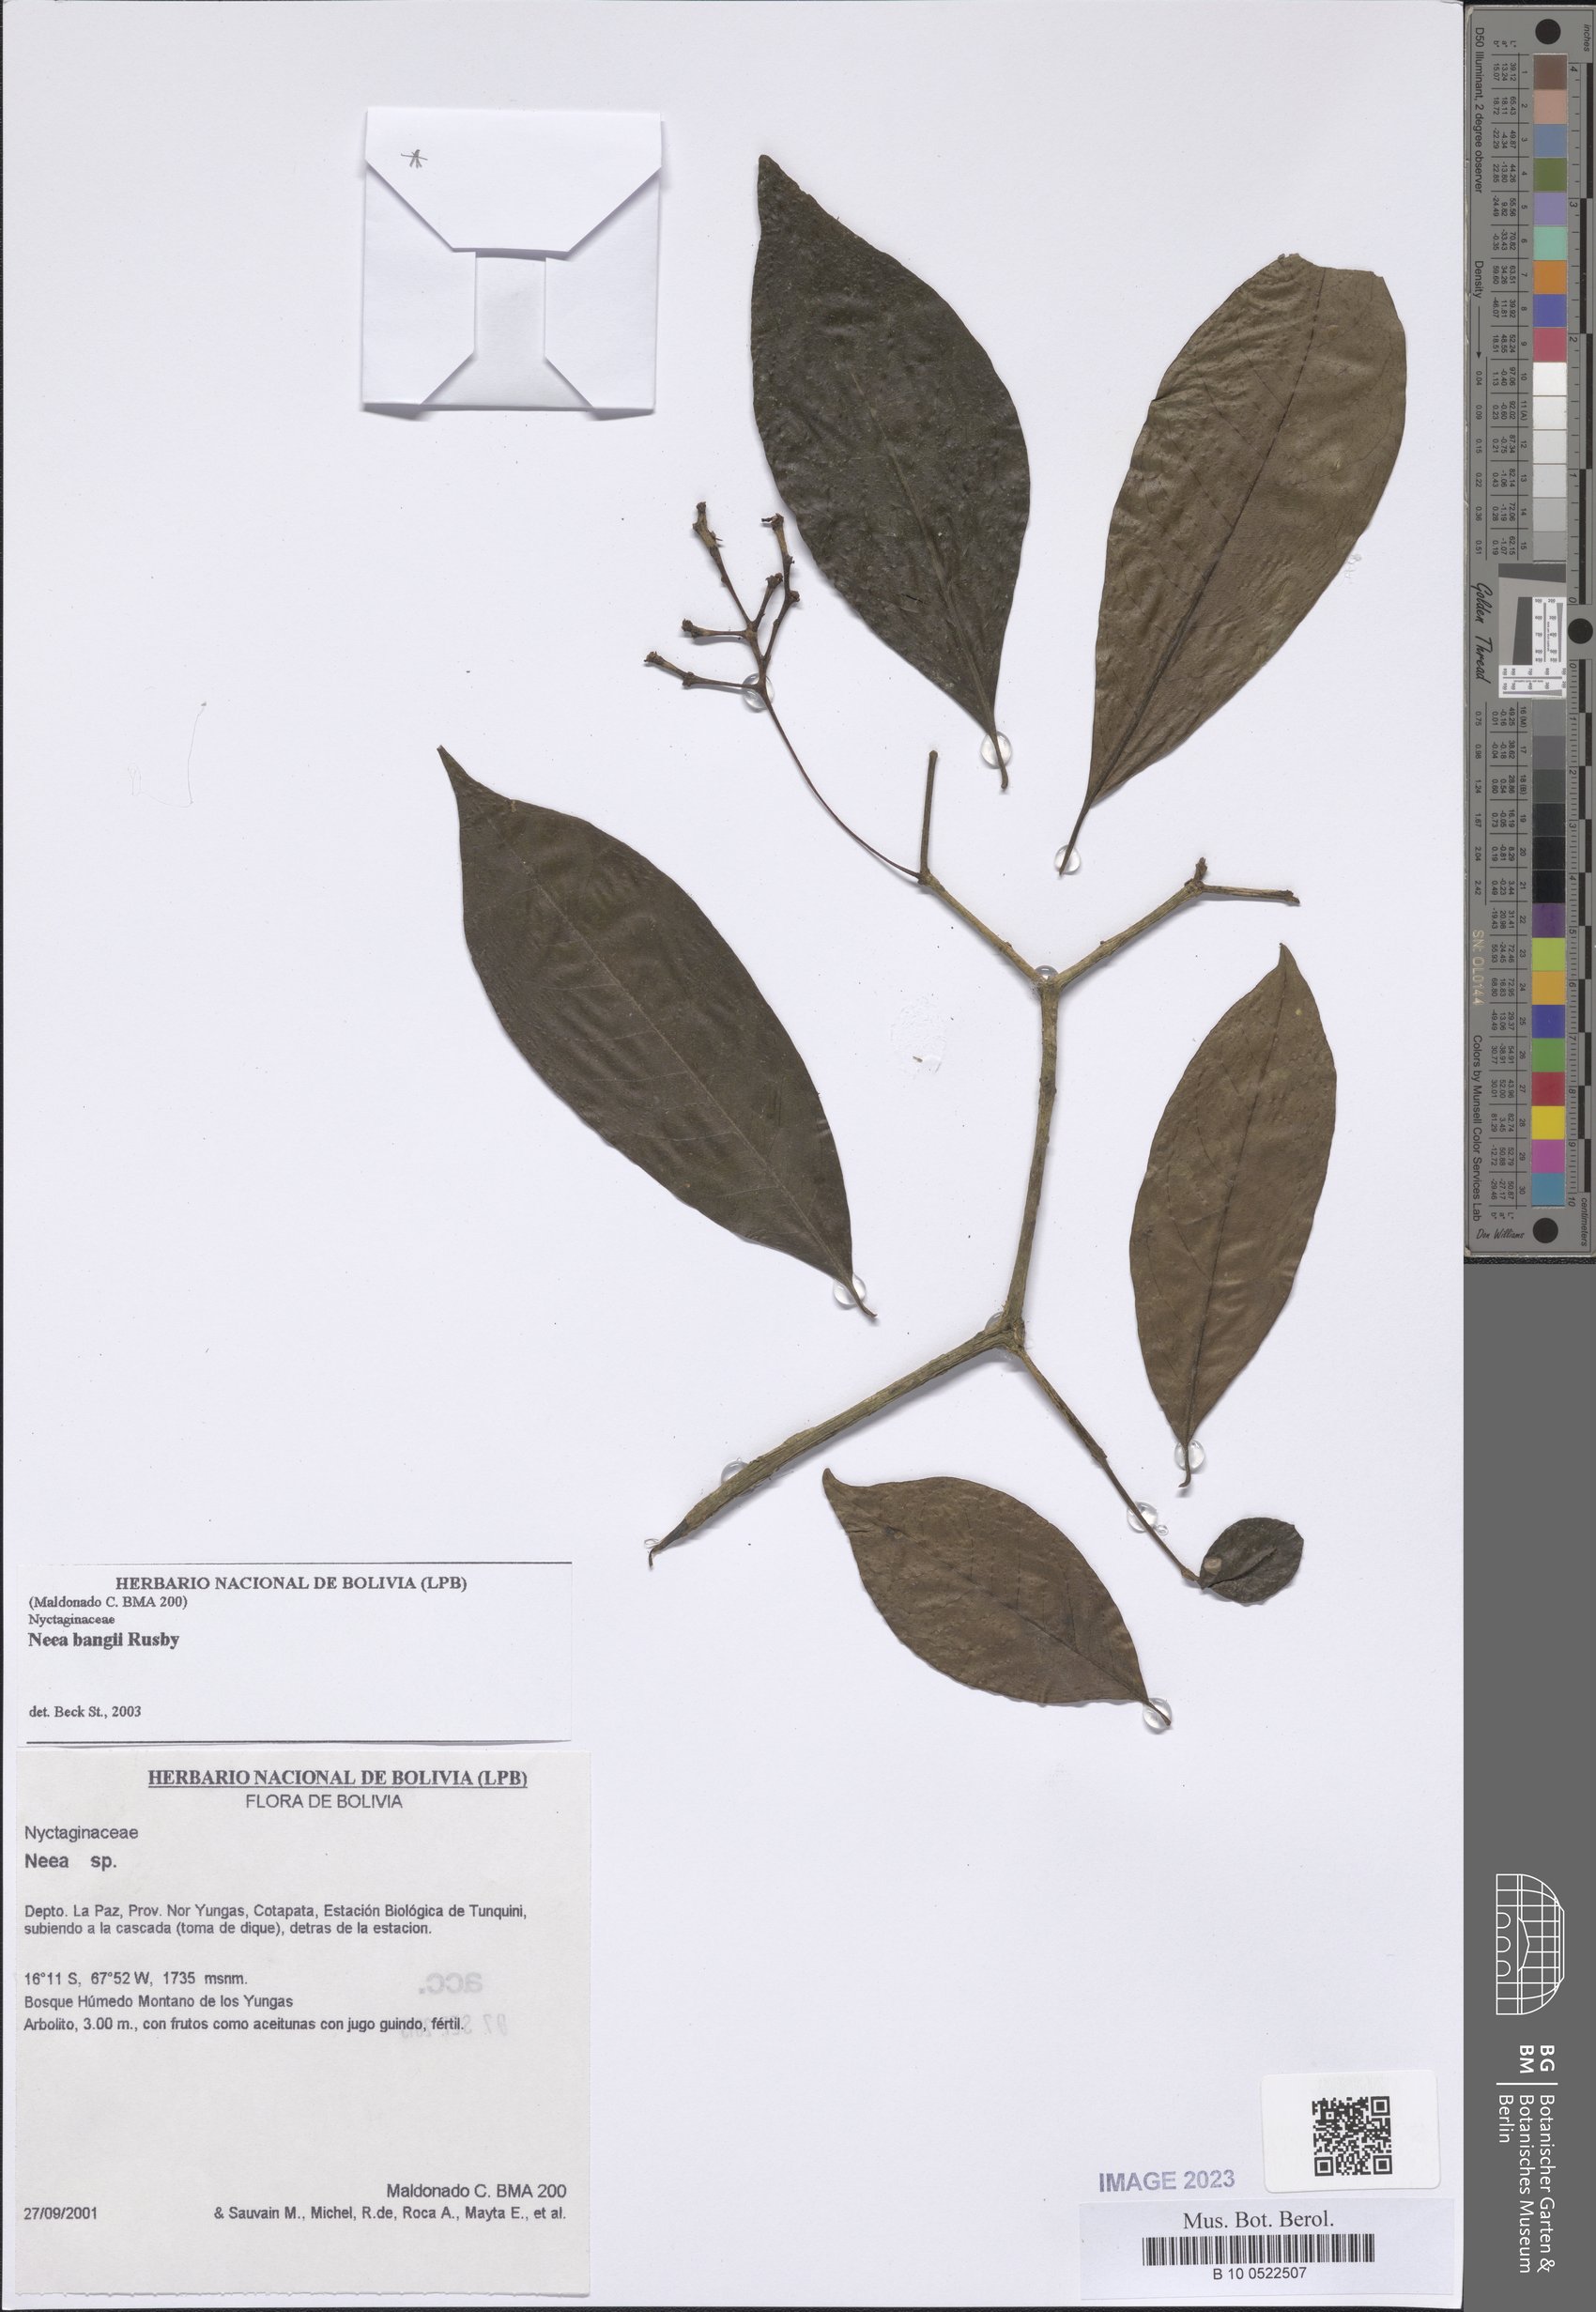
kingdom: Plantae
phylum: Tracheophyta
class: Magnoliopsida
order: Caryophyllales
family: Nyctaginaceae
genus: Neea
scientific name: Neea bangii
